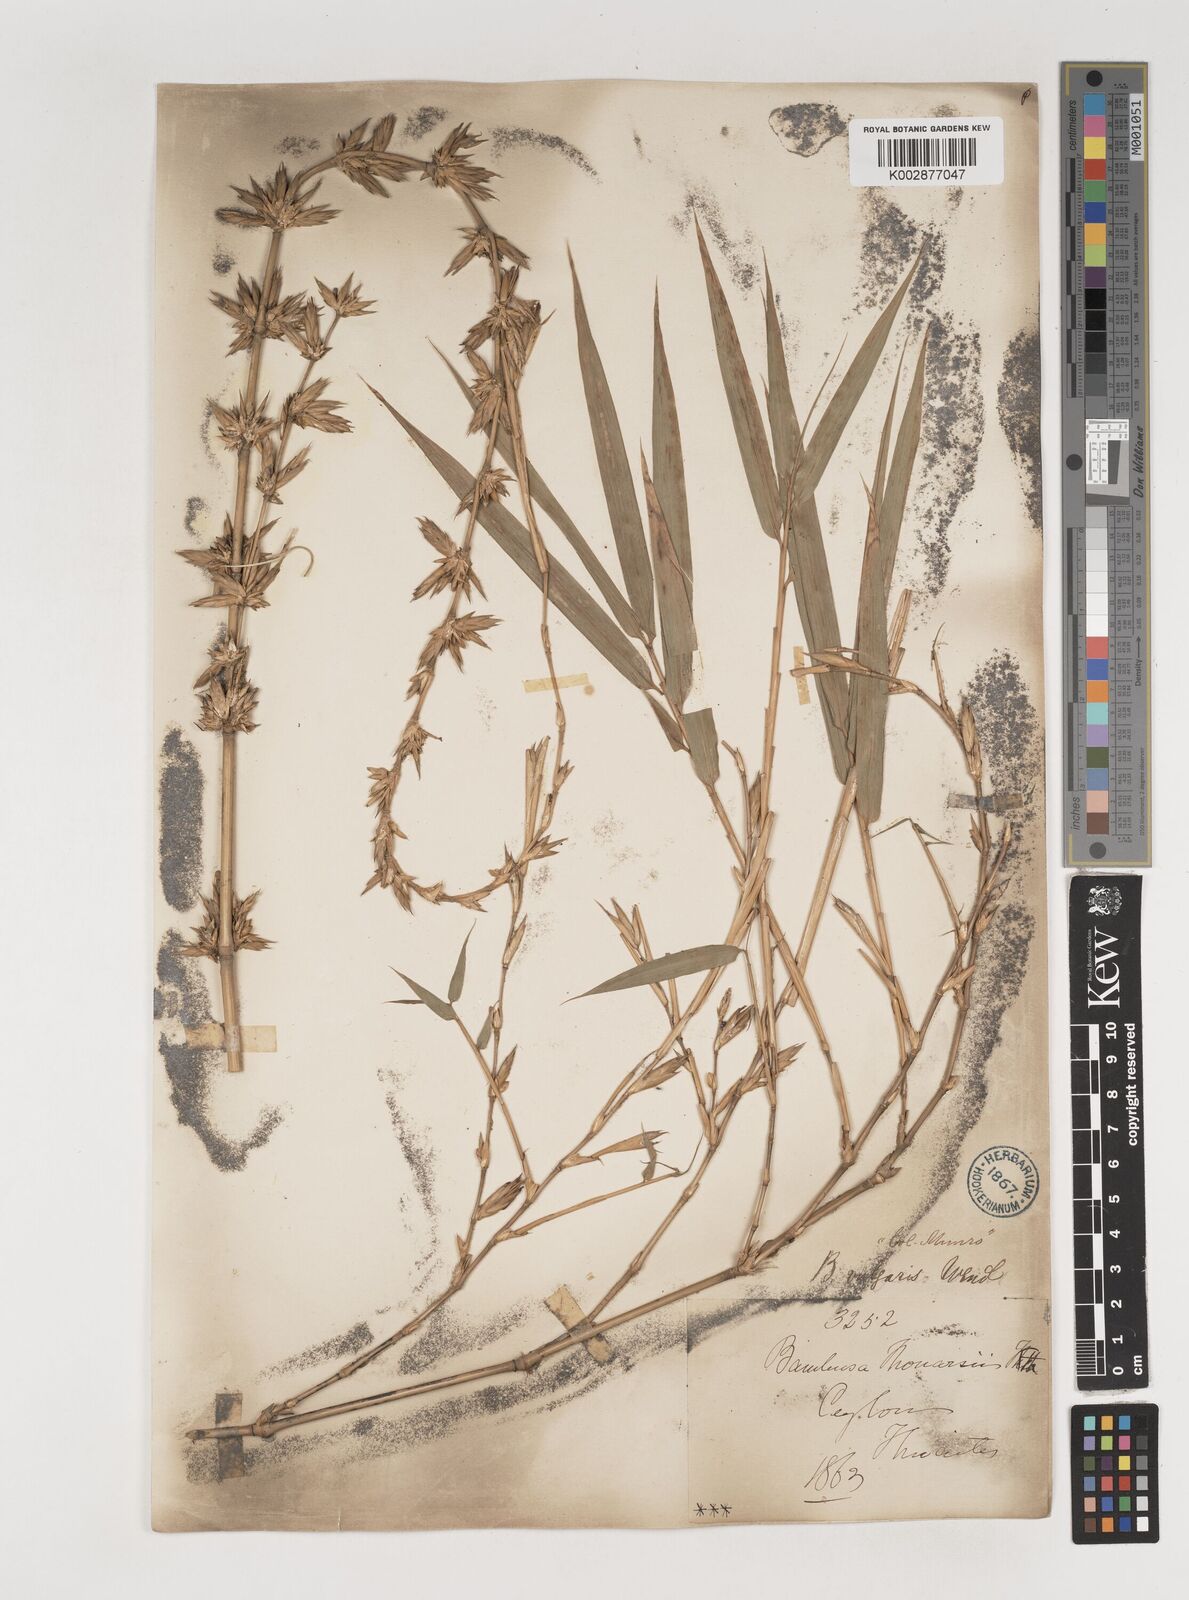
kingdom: Plantae
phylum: Tracheophyta
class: Liliopsida
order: Poales
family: Poaceae
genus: Bambusa
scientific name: Bambusa vulgaris
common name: Common bamboo
